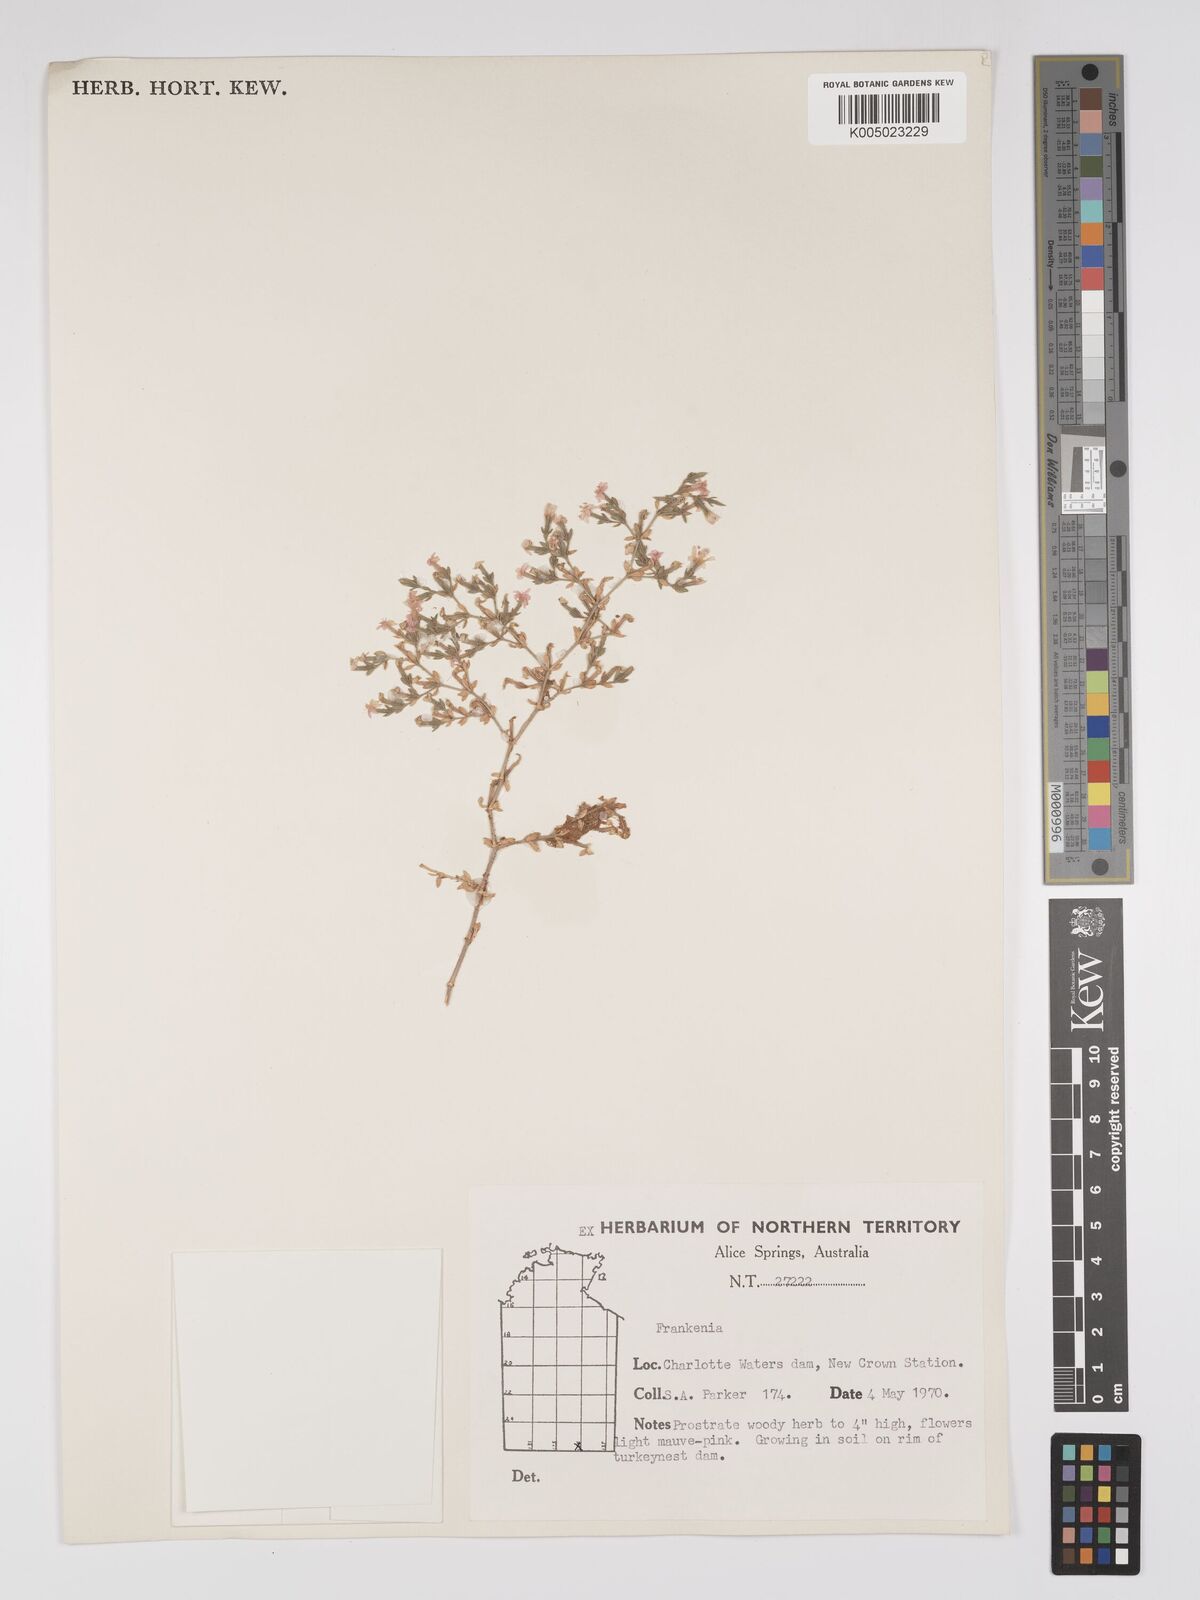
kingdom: Plantae
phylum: Tracheophyta
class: Magnoliopsida
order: Caryophyllales
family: Frankeniaceae
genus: Frankenia
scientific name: Frankenia
